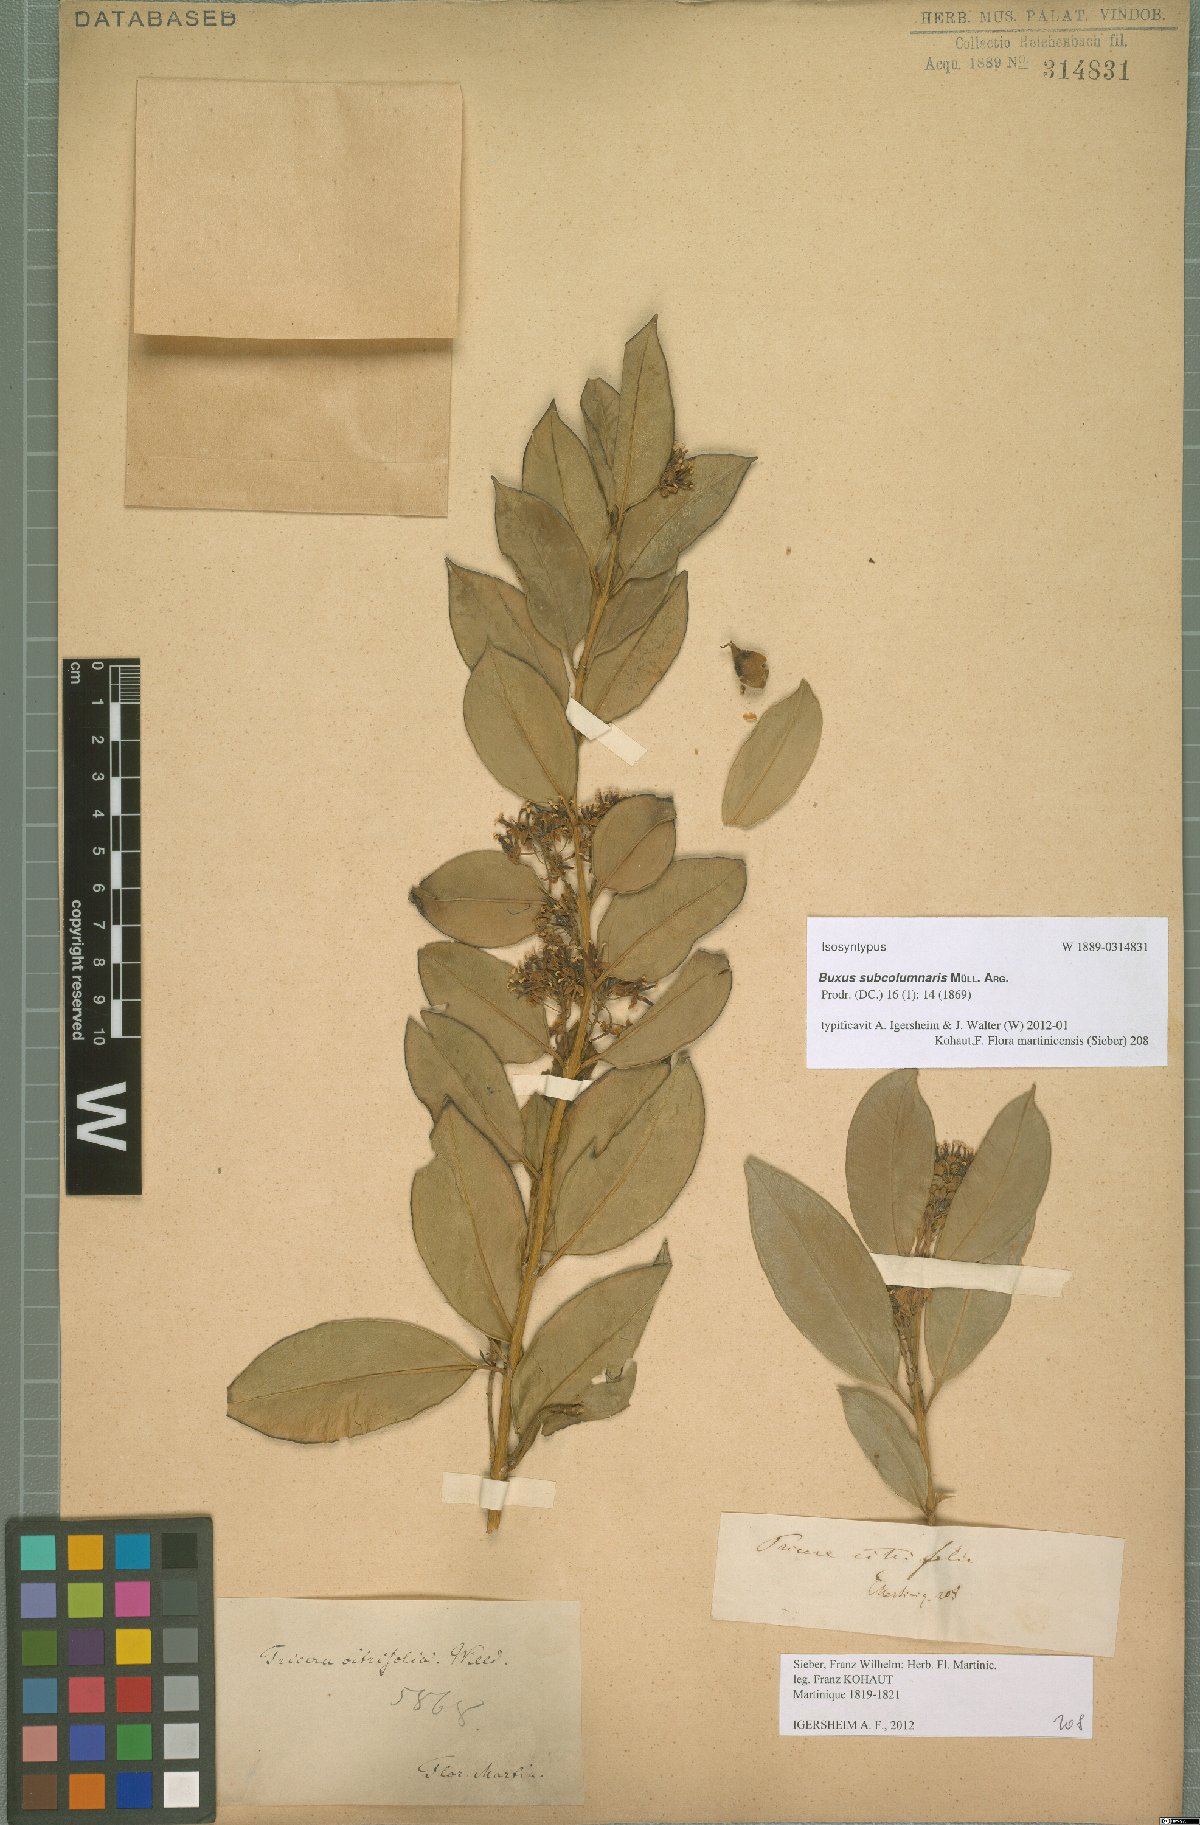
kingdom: Plantae
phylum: Tracheophyta
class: Magnoliopsida
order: Buxales
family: Buxaceae
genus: Buxus
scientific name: Buxus subcolumnaris
